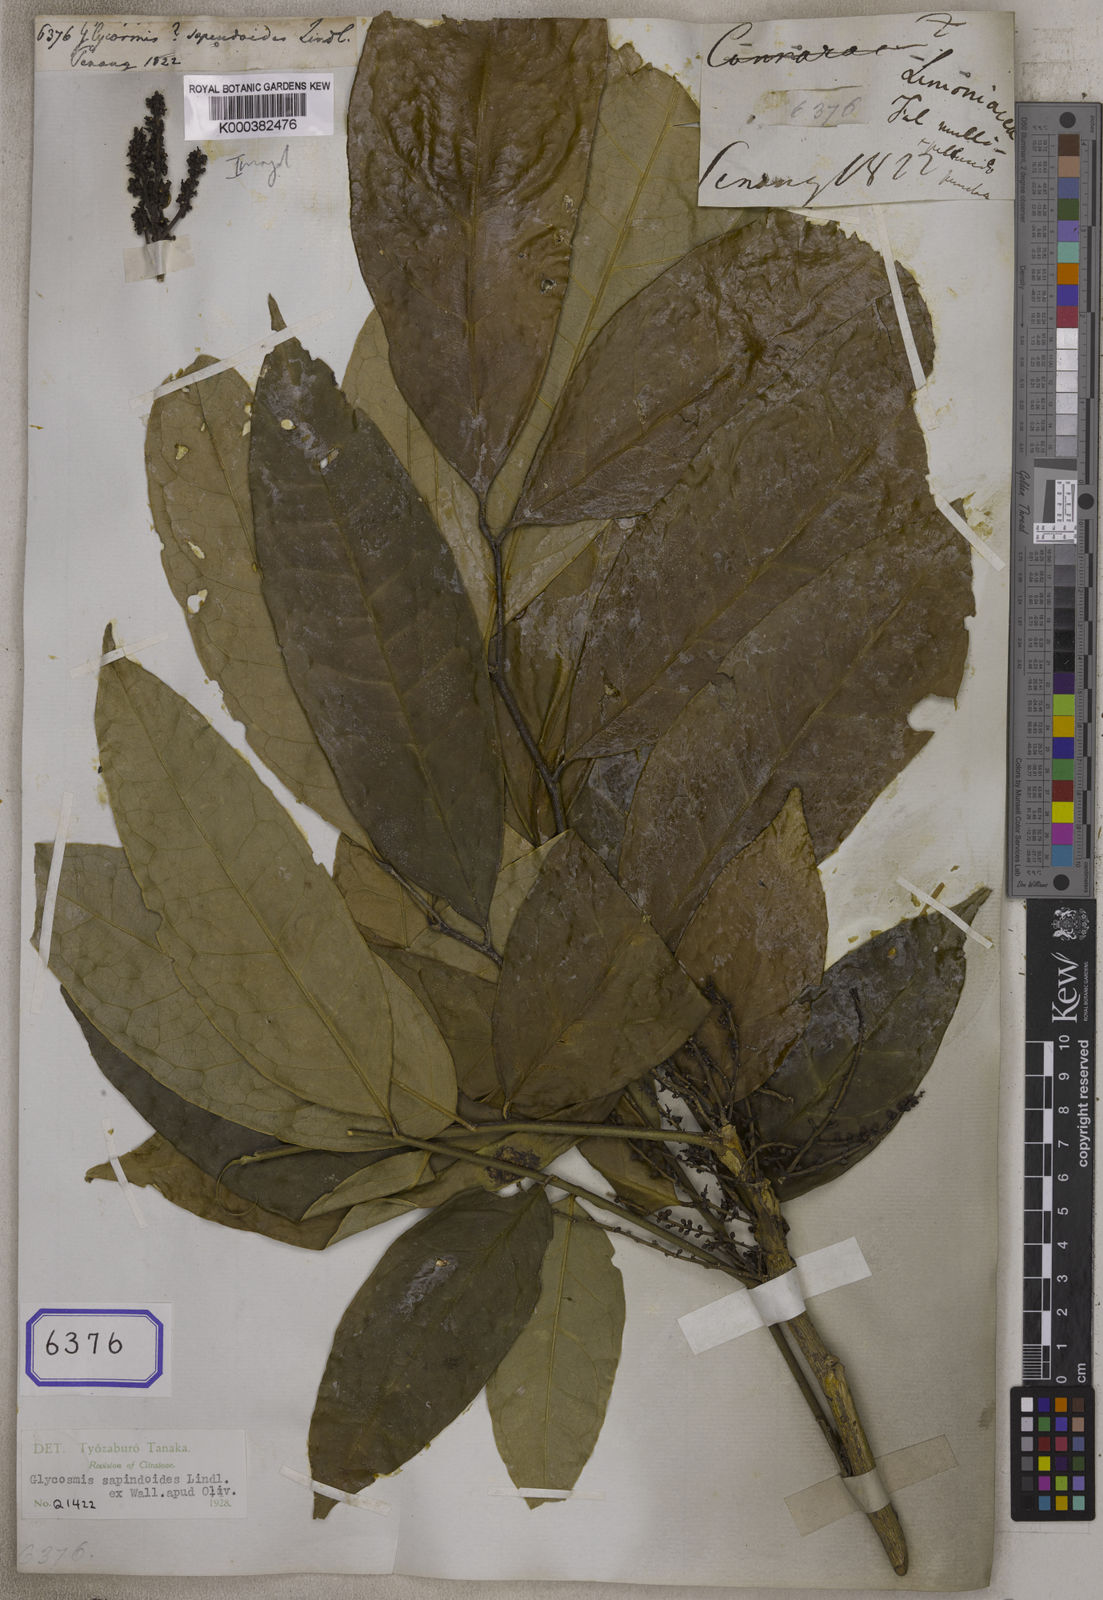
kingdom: Plantae
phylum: Tracheophyta
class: Magnoliopsida
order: Sapindales
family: Rutaceae
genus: Glycosmis
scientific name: Glycosmis
